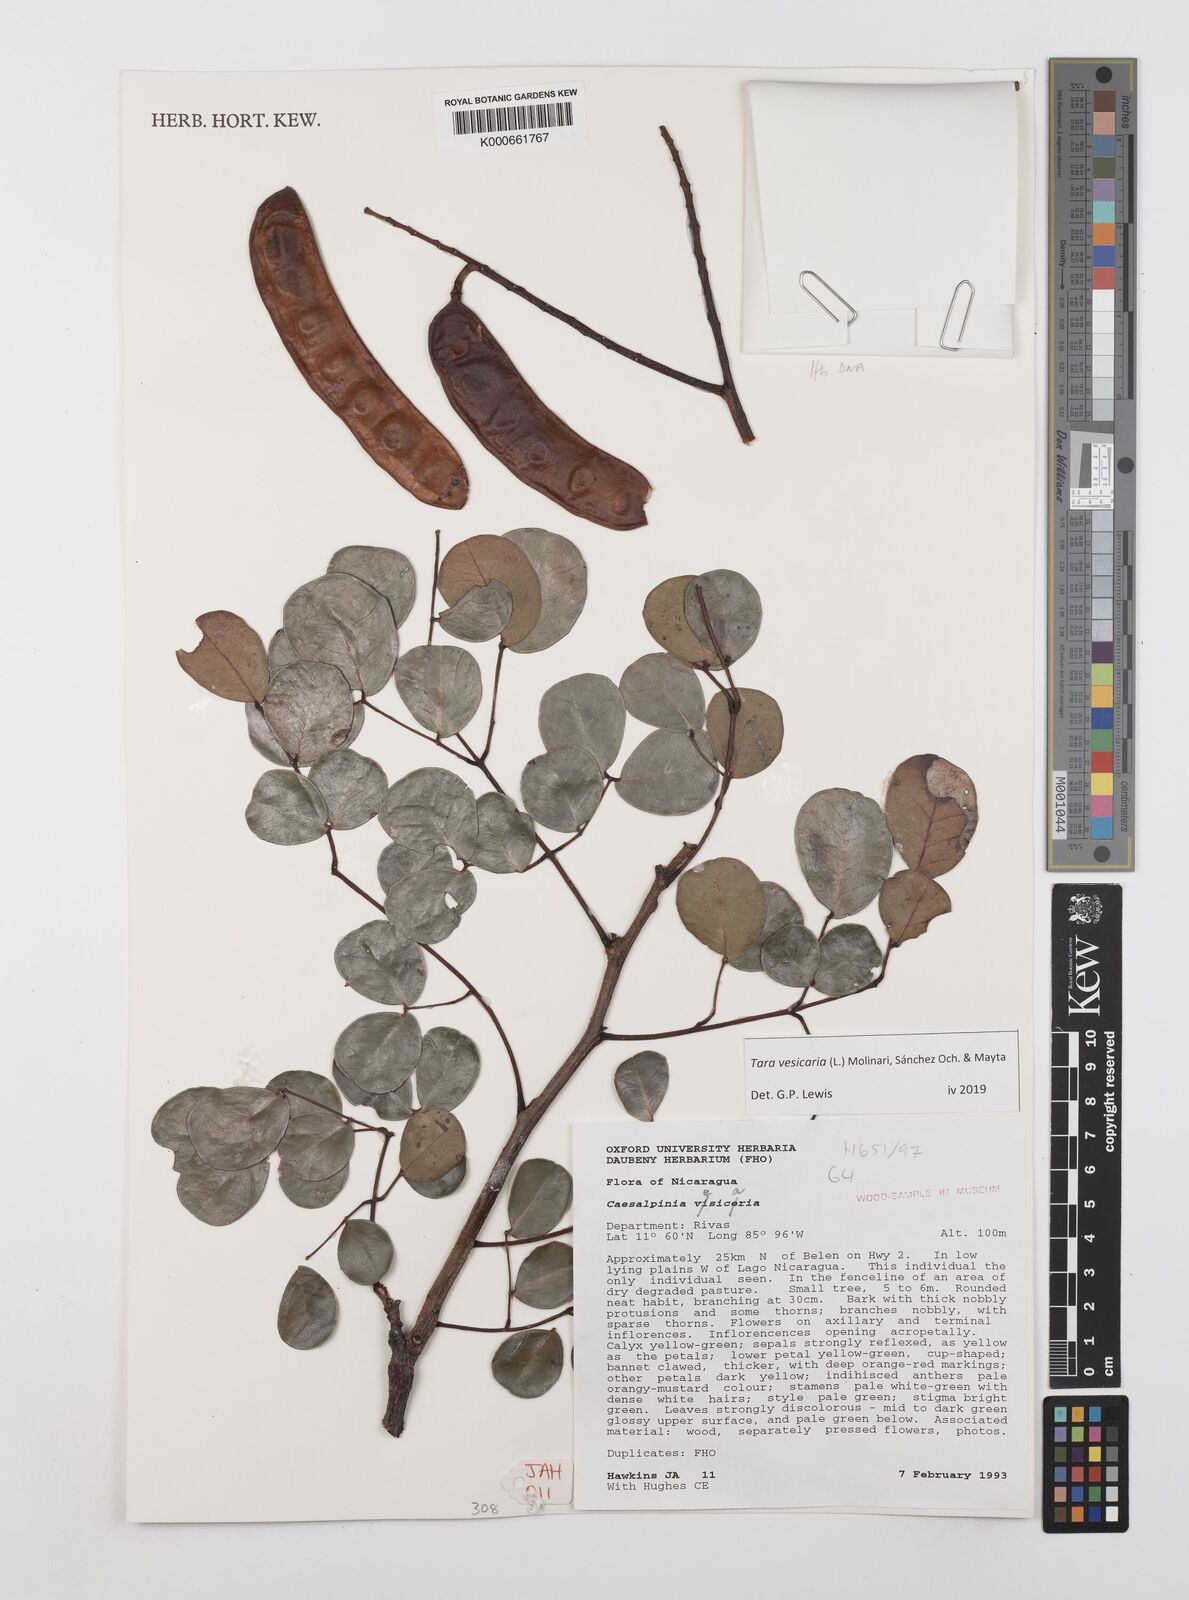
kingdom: Plantae
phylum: Tracheophyta
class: Magnoliopsida
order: Fabales
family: Fabaceae
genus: Tara
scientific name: Tara vesicaria
